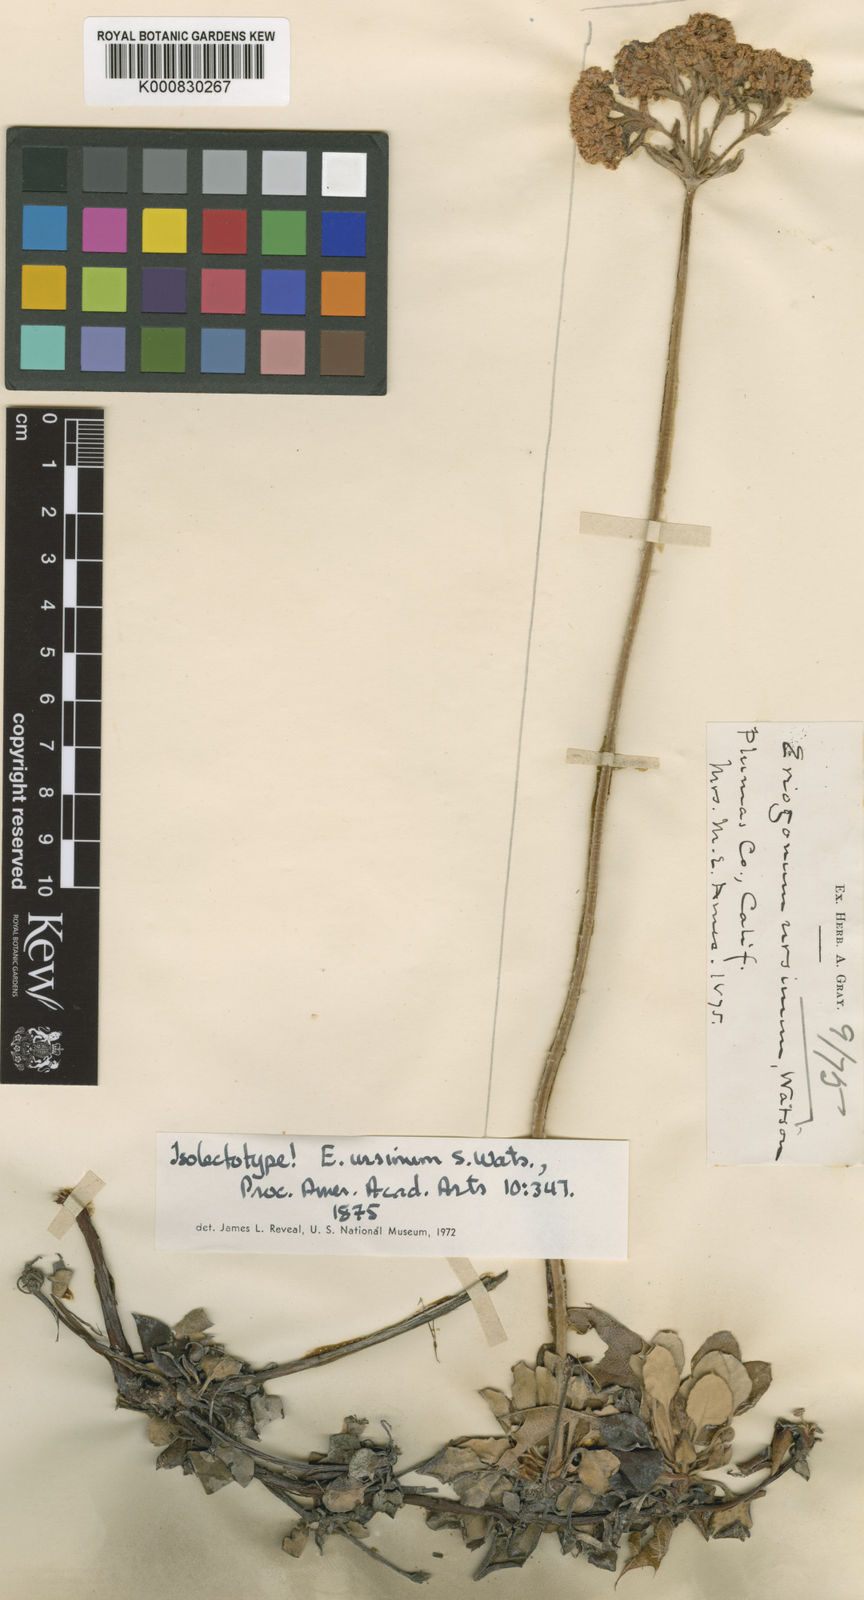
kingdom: Plantae
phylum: Tracheophyta
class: Magnoliopsida
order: Caryophyllales
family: Polygonaceae
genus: Eriogonum
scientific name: Eriogonum ursinum
